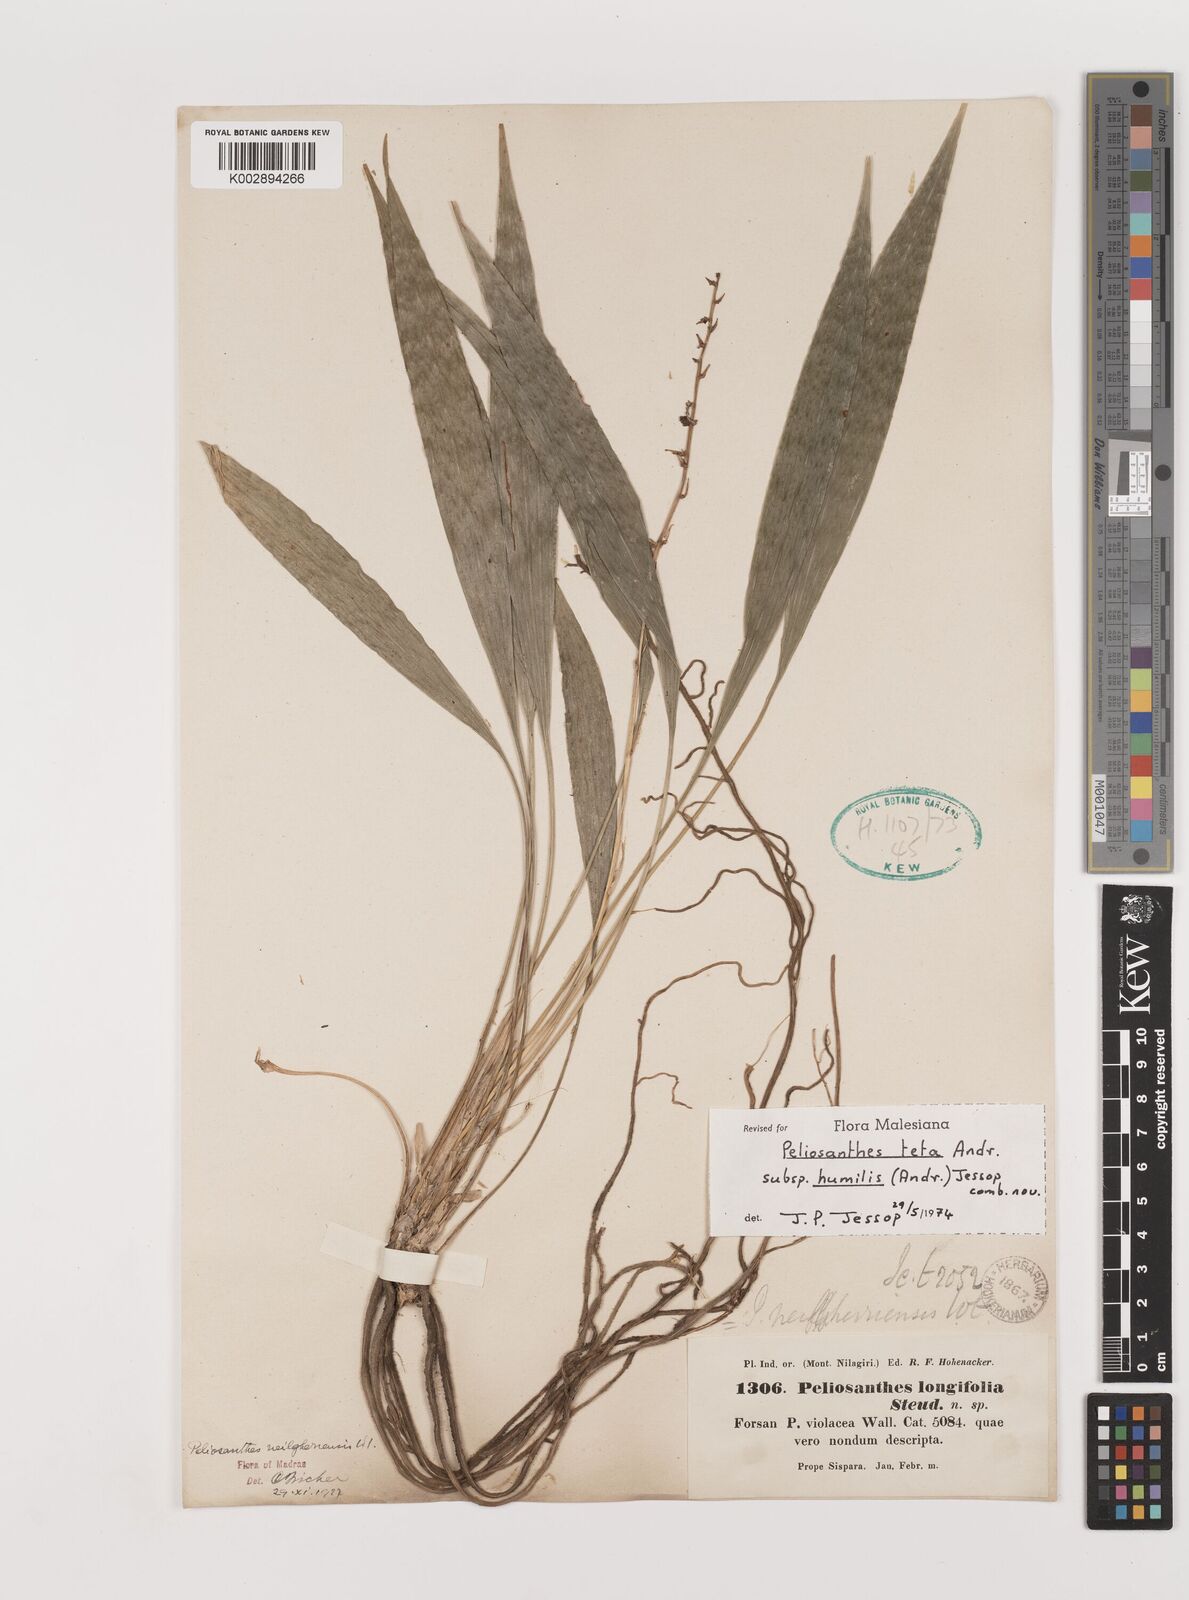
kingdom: Plantae
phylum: Tracheophyta
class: Liliopsida
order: Asparagales
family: Asparagaceae
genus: Peliosanthes
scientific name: Peliosanthes teta
